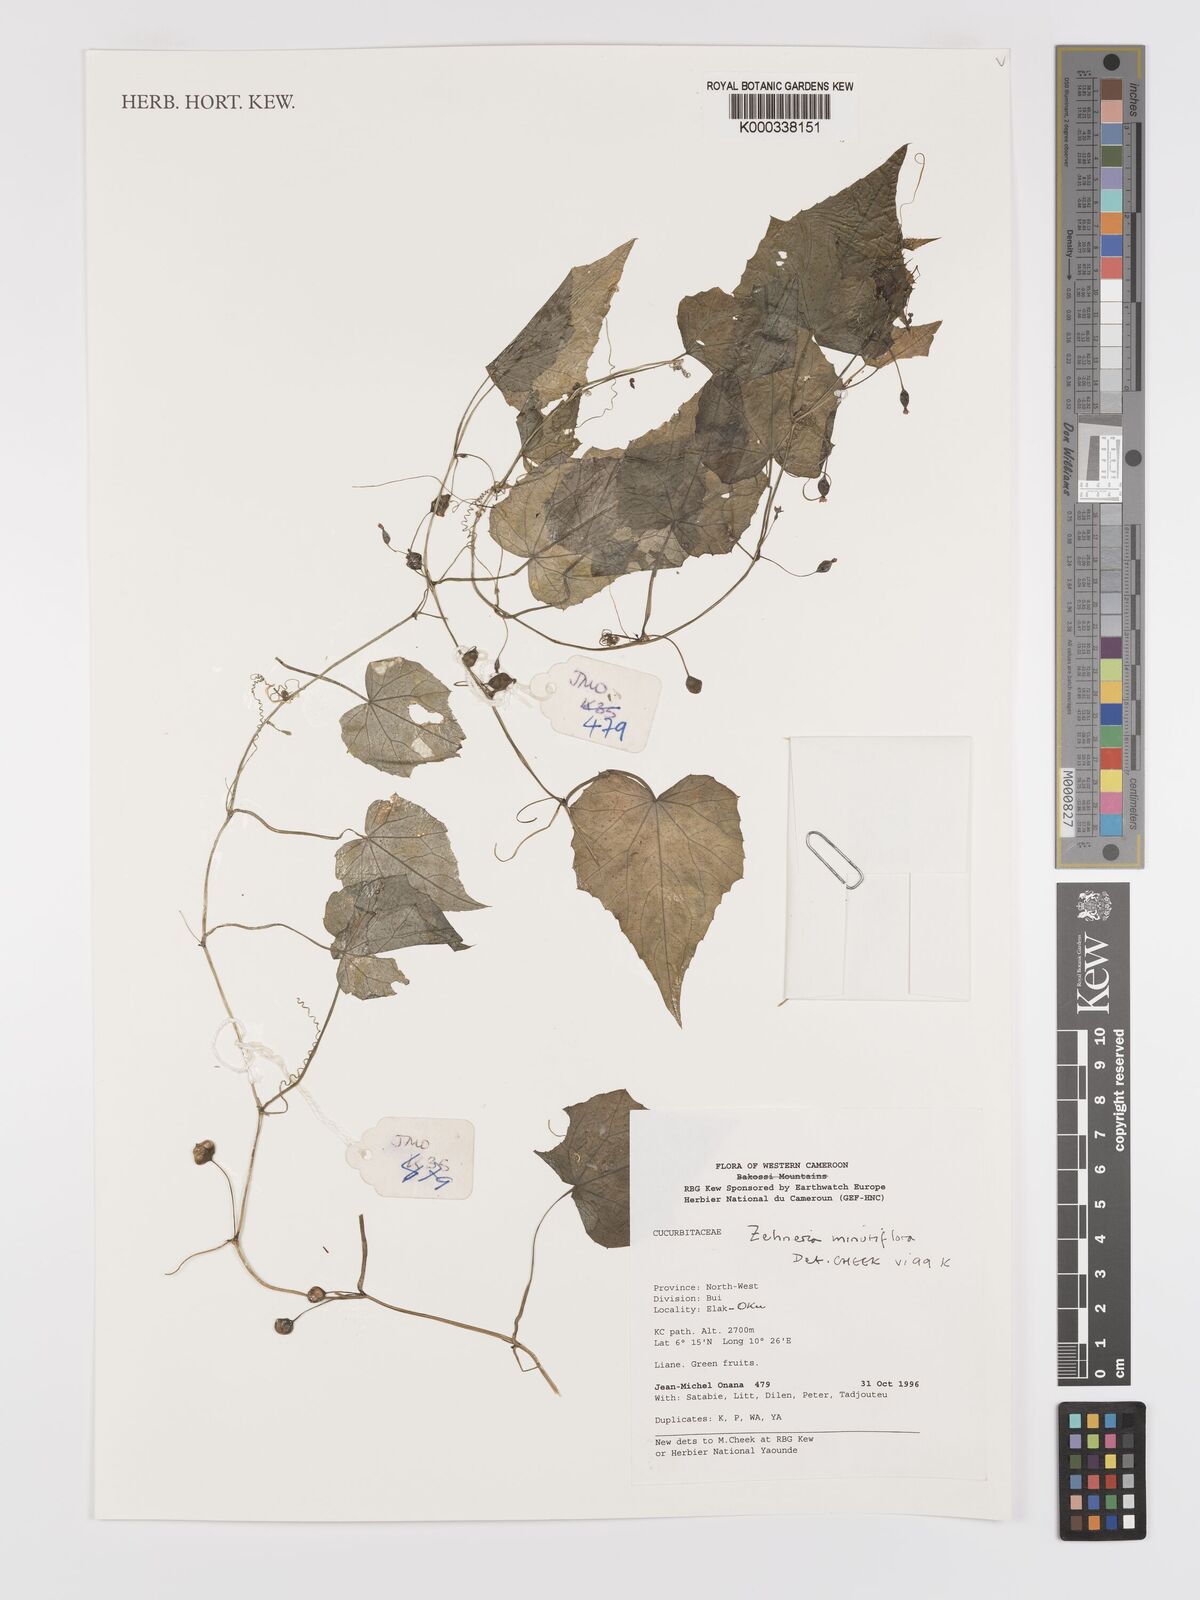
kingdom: Plantae
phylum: Tracheophyta
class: Magnoliopsida
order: Cucurbitales
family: Cucurbitaceae
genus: Zehneria
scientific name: Zehneria minutiflora
